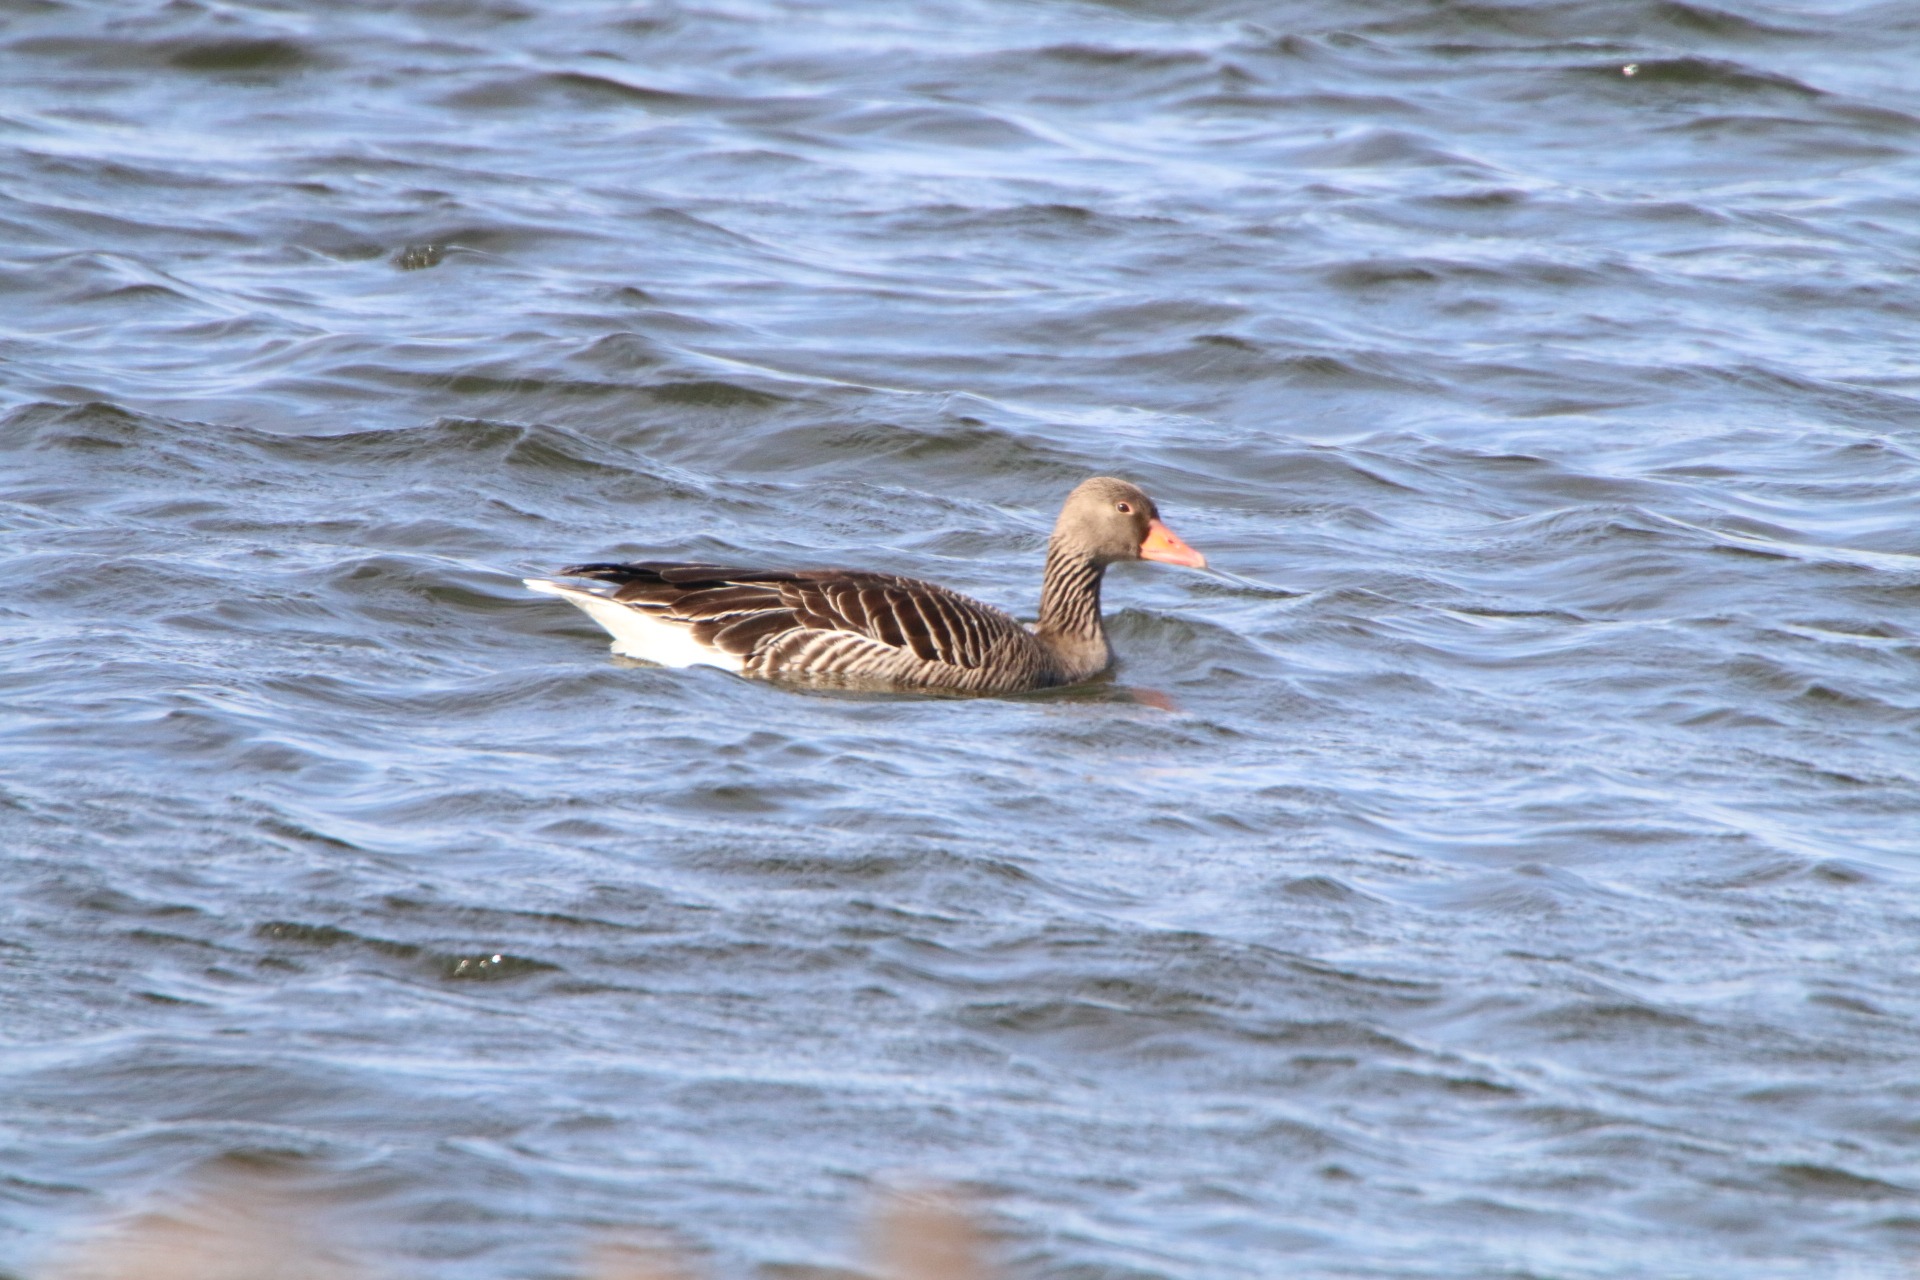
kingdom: Animalia
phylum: Chordata
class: Aves
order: Anseriformes
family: Anatidae
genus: Anser
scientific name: Anser anser
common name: Grågås
